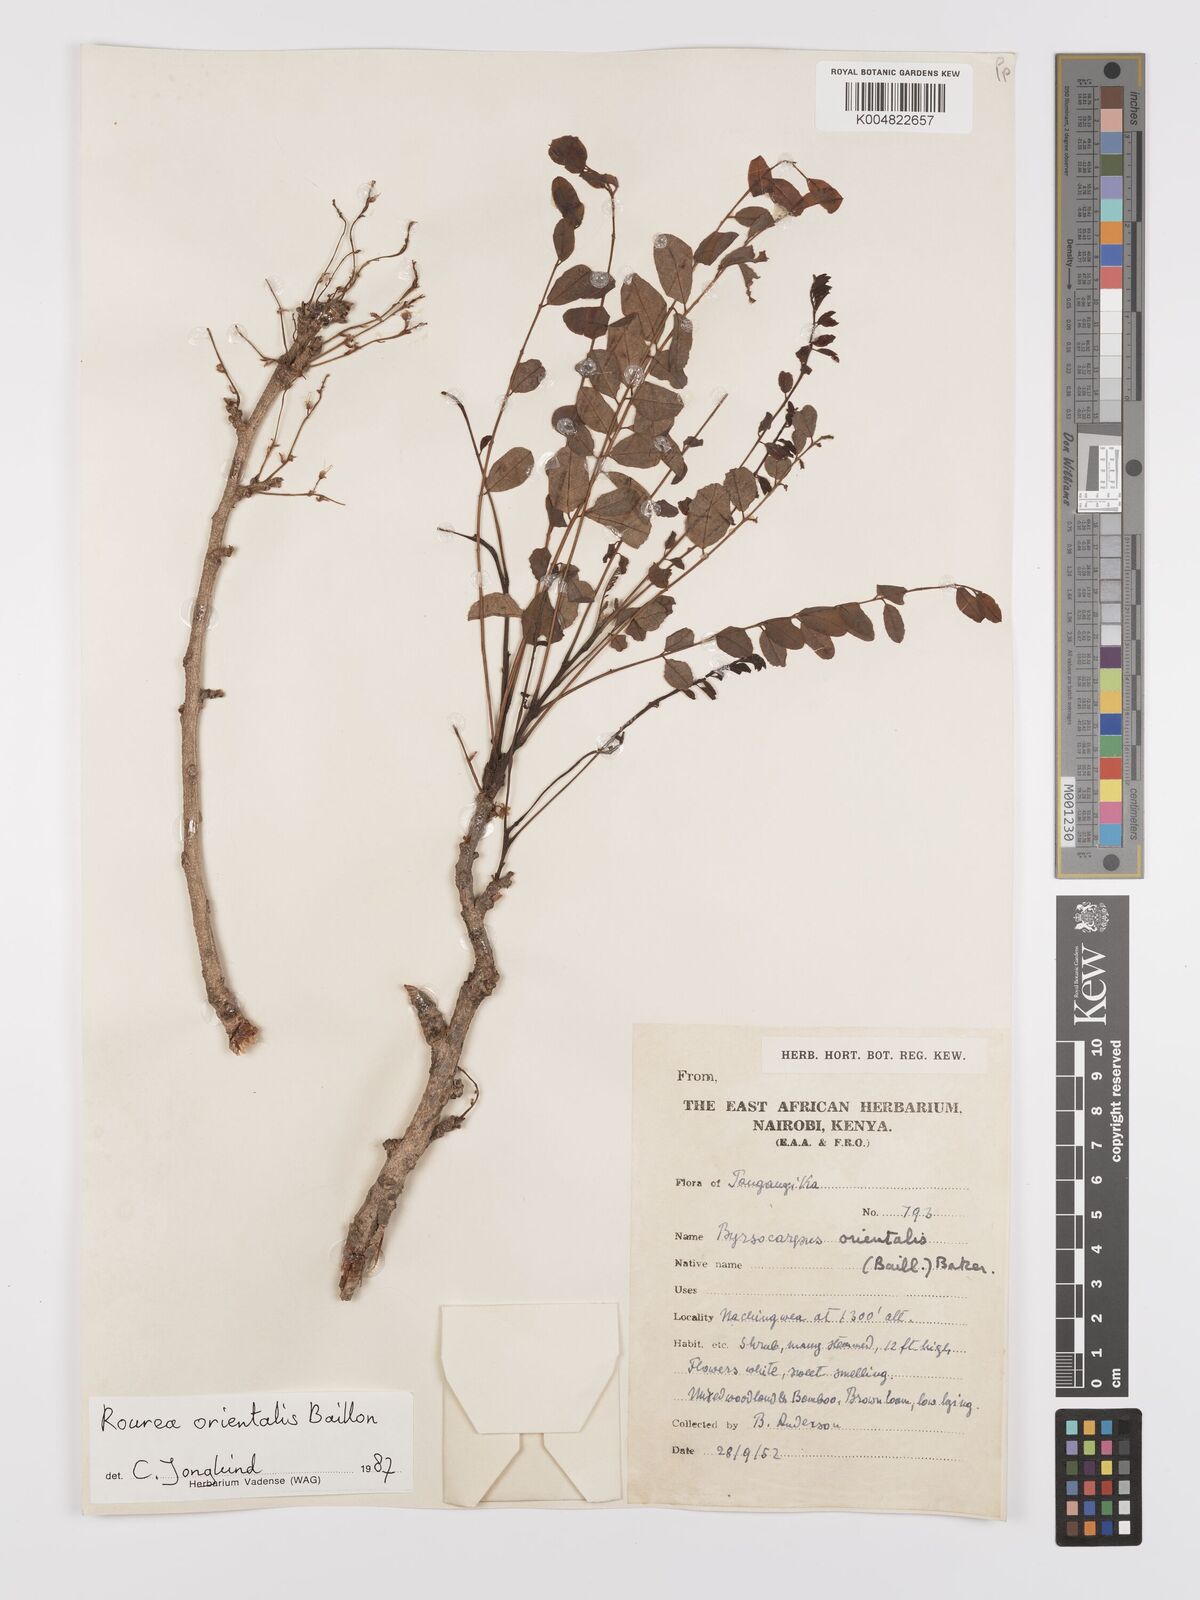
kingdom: Plantae
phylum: Tracheophyta
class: Magnoliopsida
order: Oxalidales
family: Connaraceae
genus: Rourea
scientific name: Rourea orientalis
